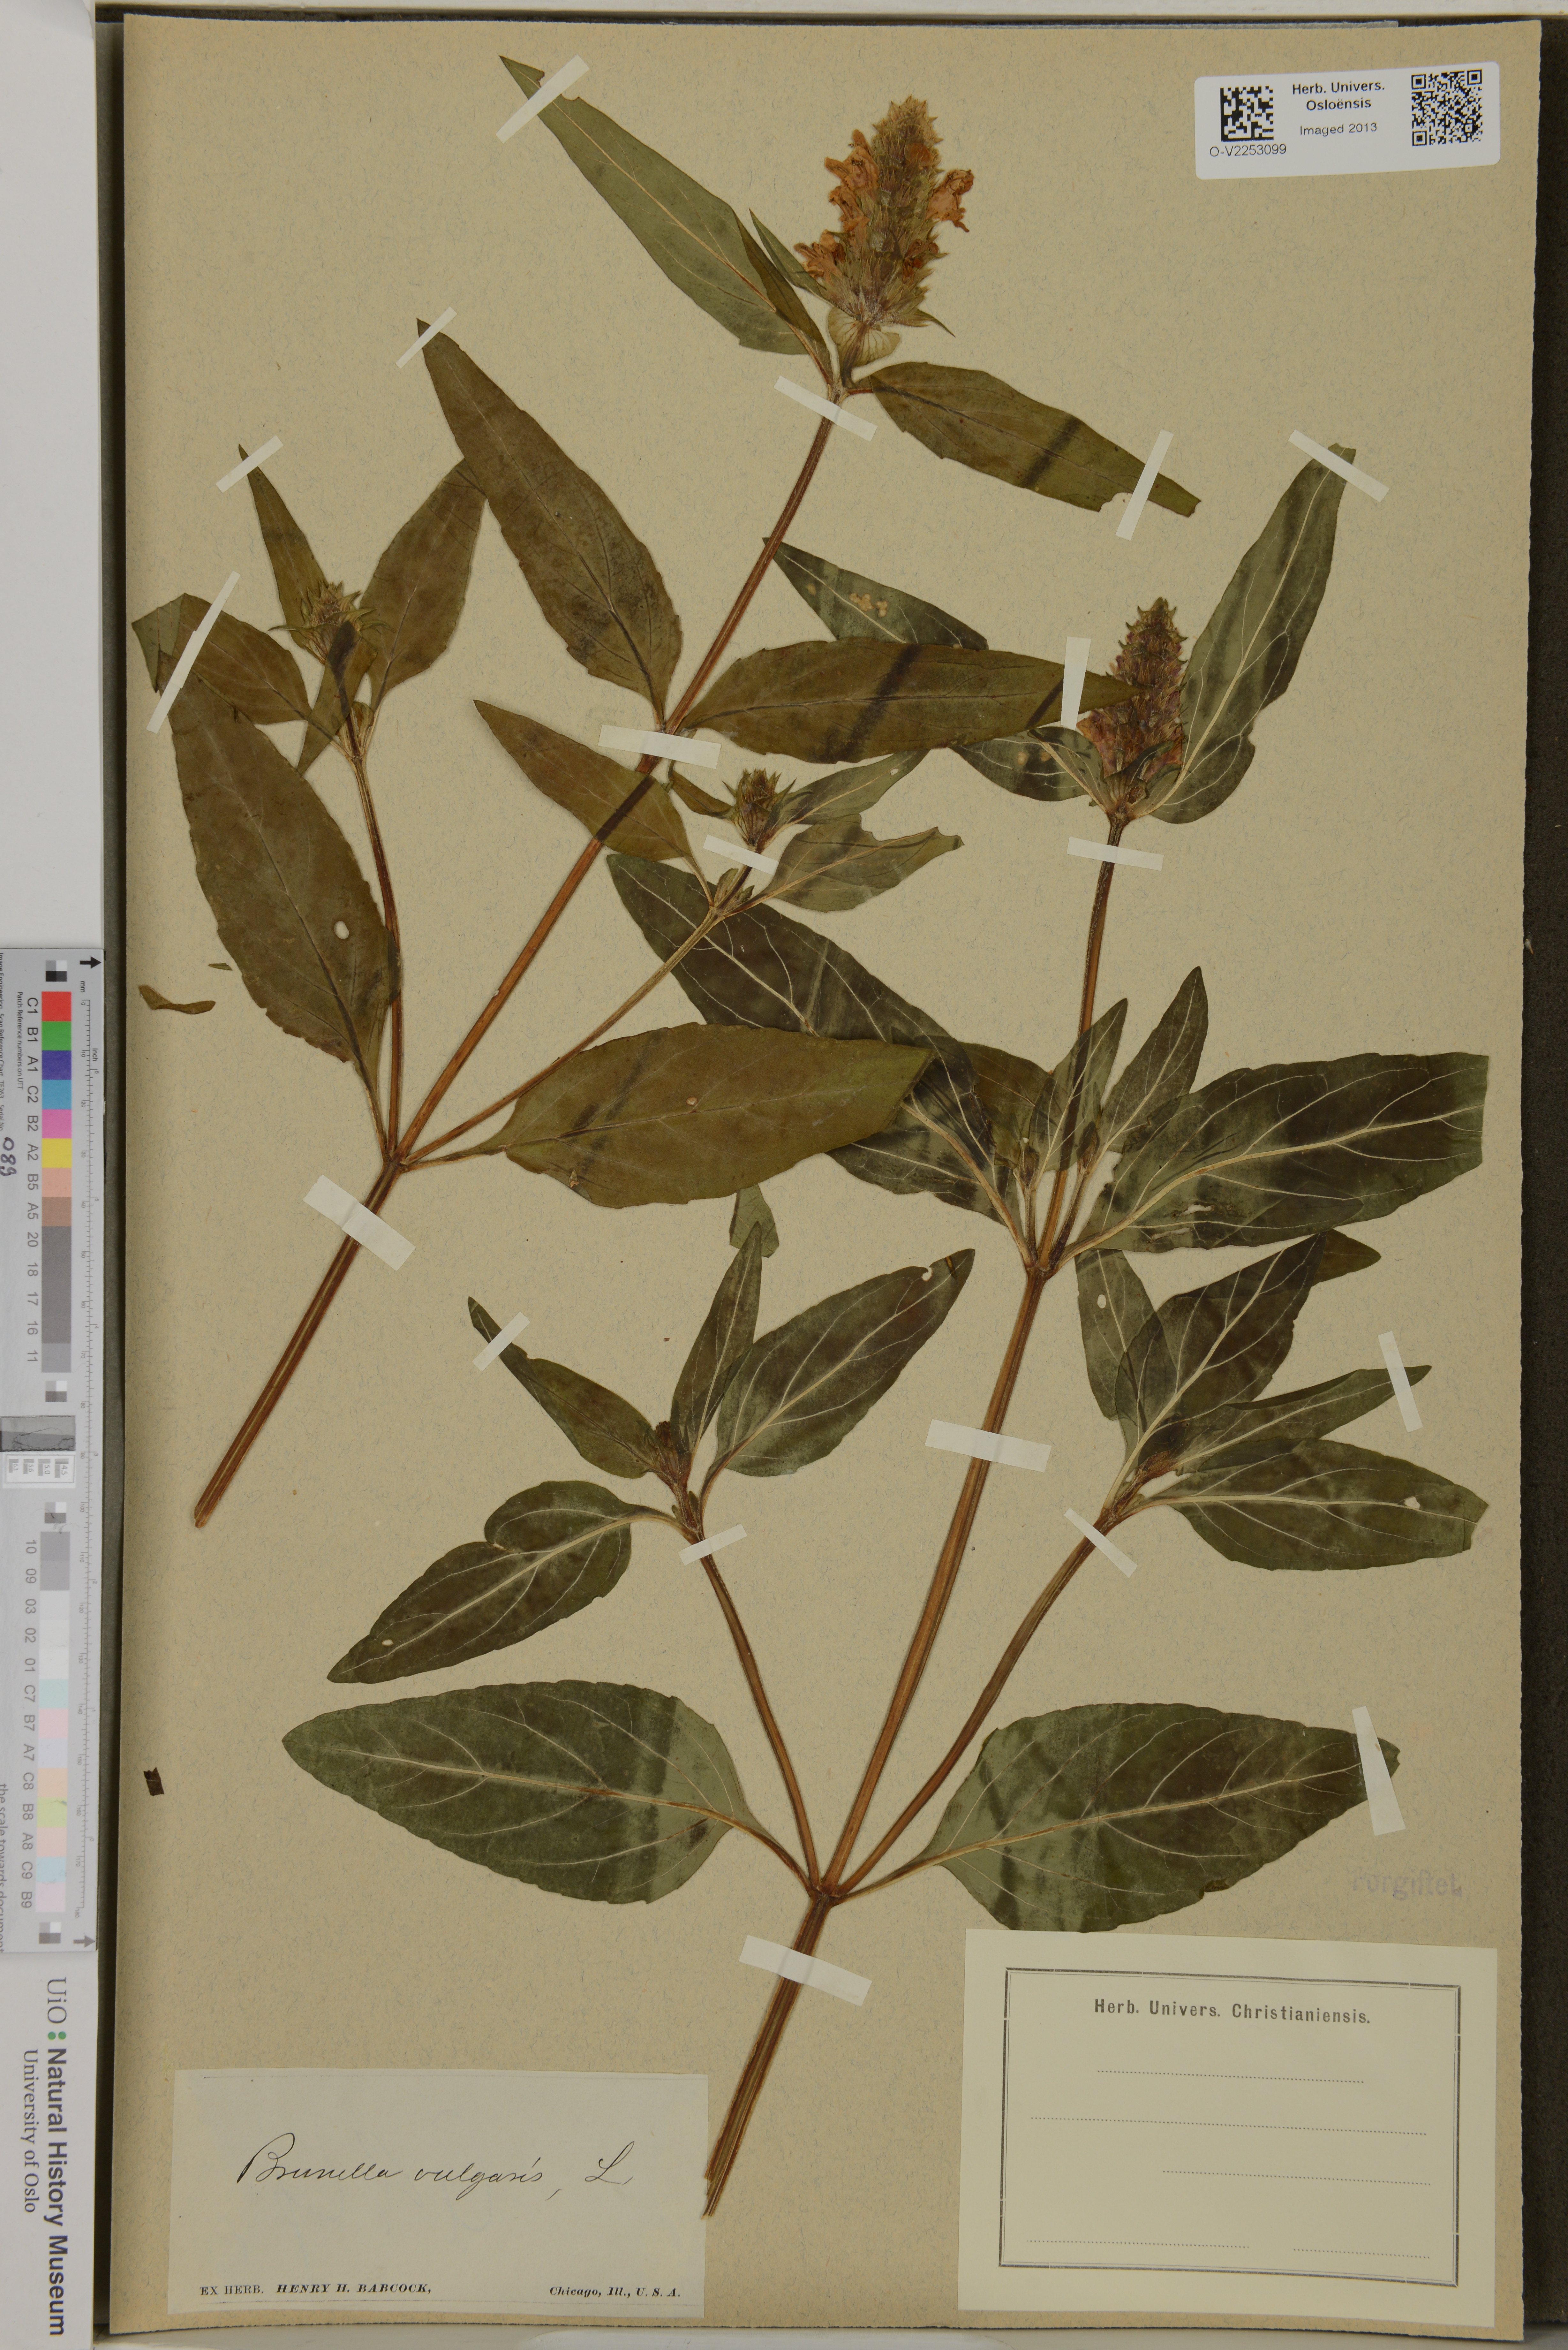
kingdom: Plantae
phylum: Tracheophyta
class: Magnoliopsida
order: Lamiales
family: Lamiaceae
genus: Prunella
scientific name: Prunella vulgaris
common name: Heal-all
